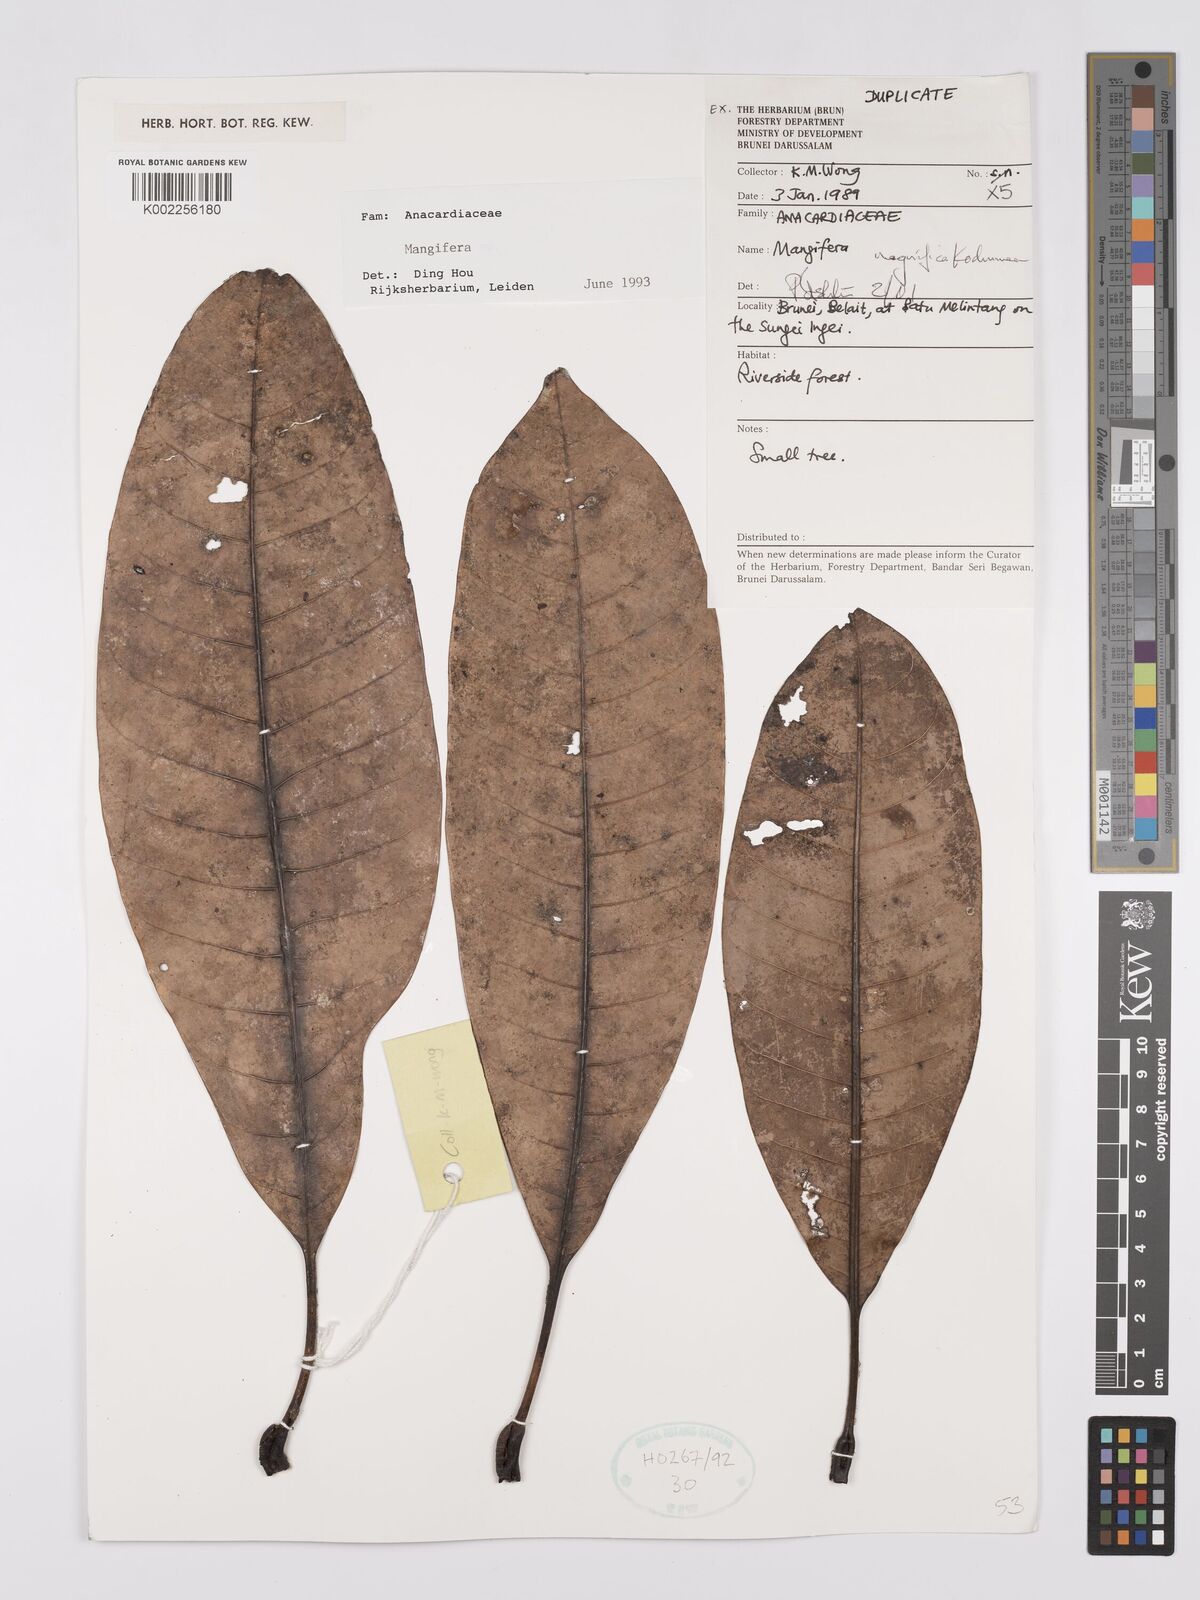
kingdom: Plantae
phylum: Tracheophyta
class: Magnoliopsida
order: Sapindales
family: Anacardiaceae
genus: Mangifera
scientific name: Mangifera magnifica
